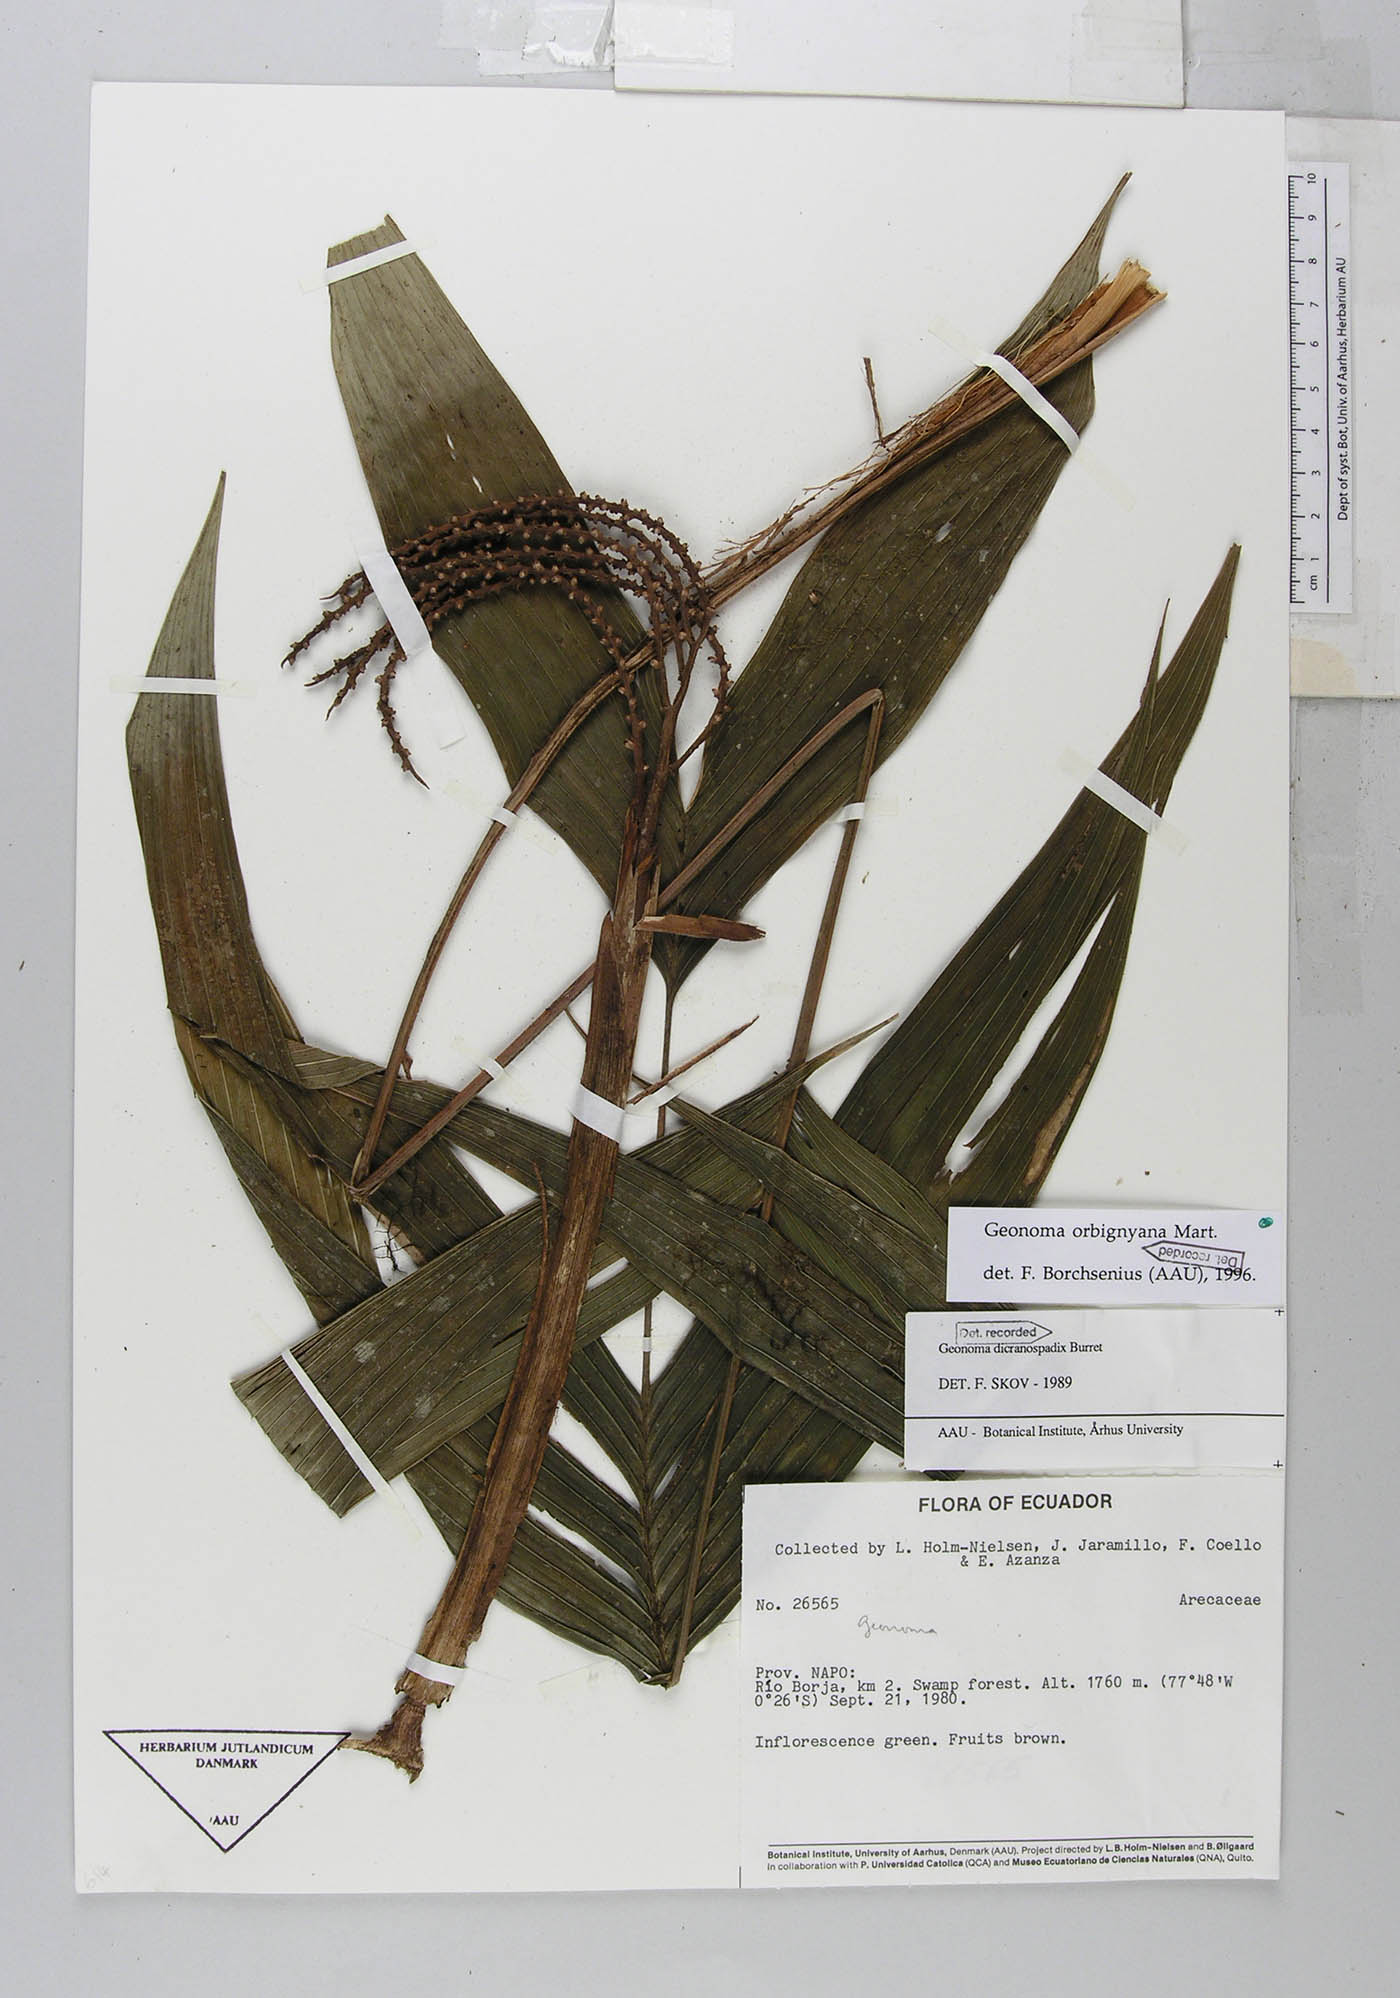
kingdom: Plantae
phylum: Tracheophyta
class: Liliopsida
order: Arecales
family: Arecaceae
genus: Geonoma
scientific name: Geonoma orbignyana
